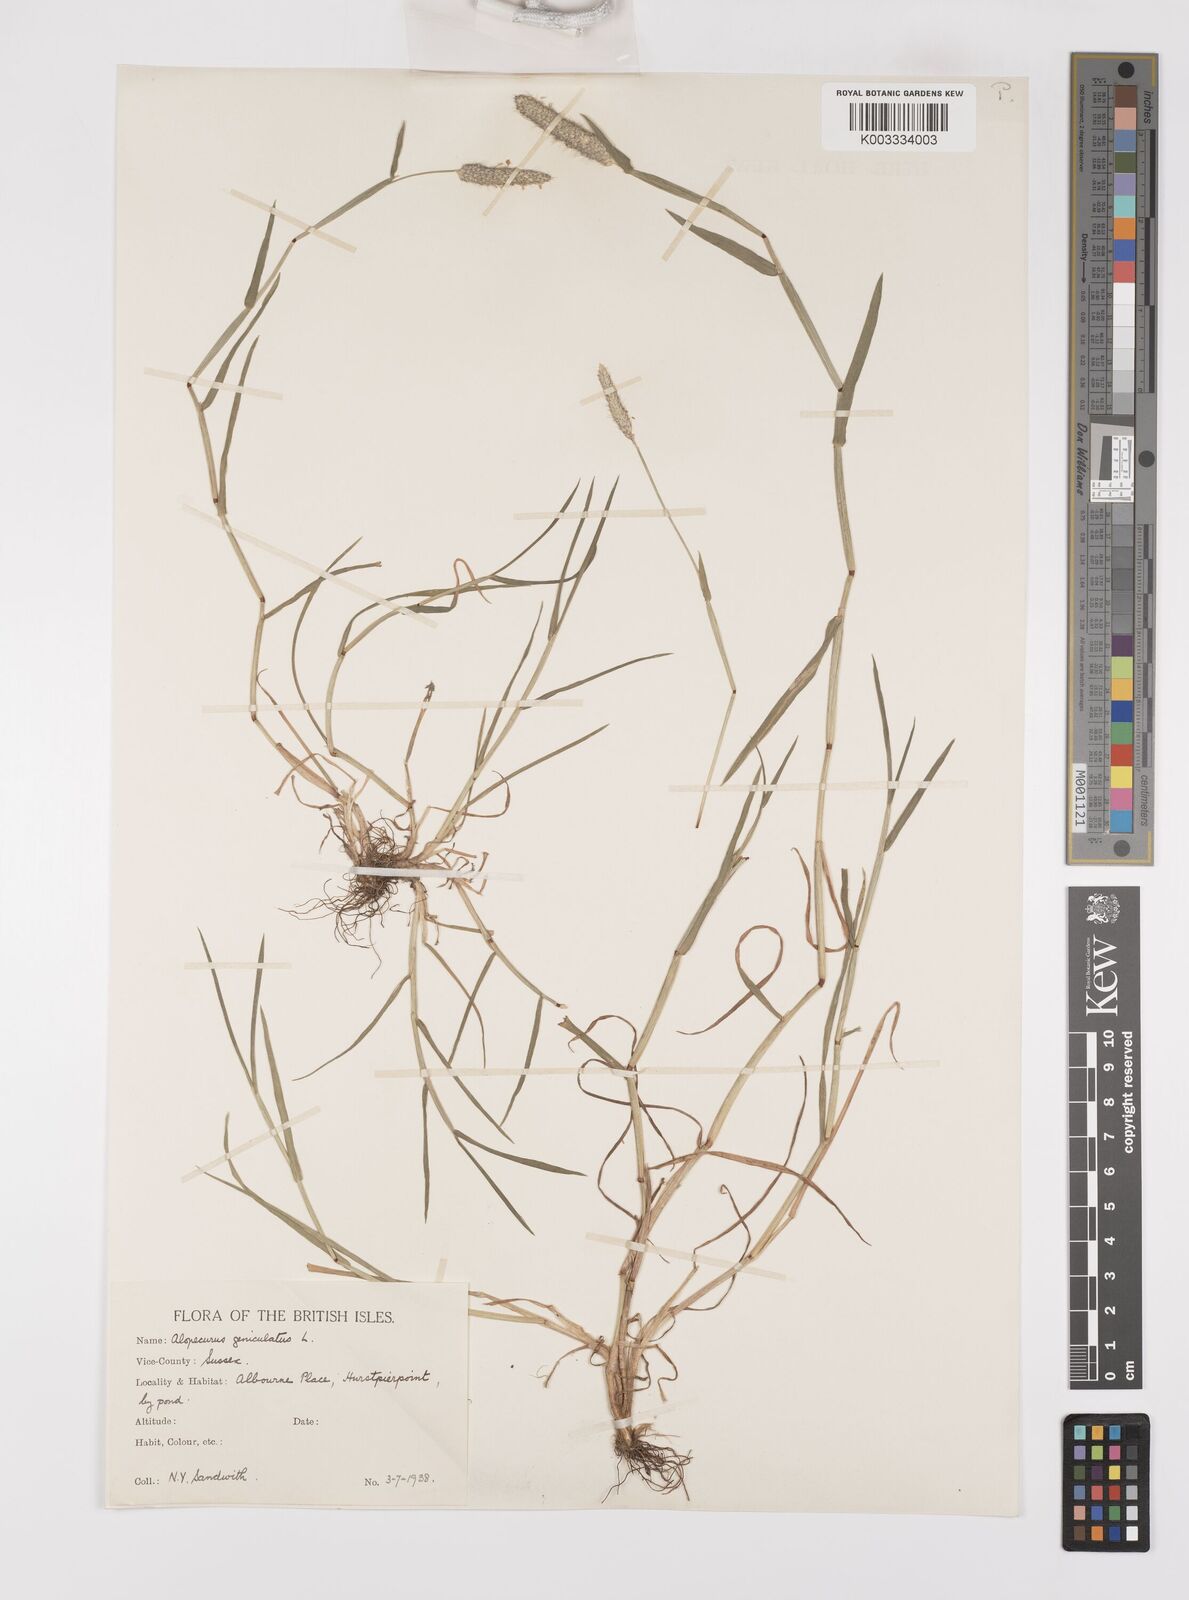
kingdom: Plantae
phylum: Tracheophyta
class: Liliopsida
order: Poales
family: Poaceae
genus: Alopecurus
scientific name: Alopecurus geniculatus
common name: Water foxtail
